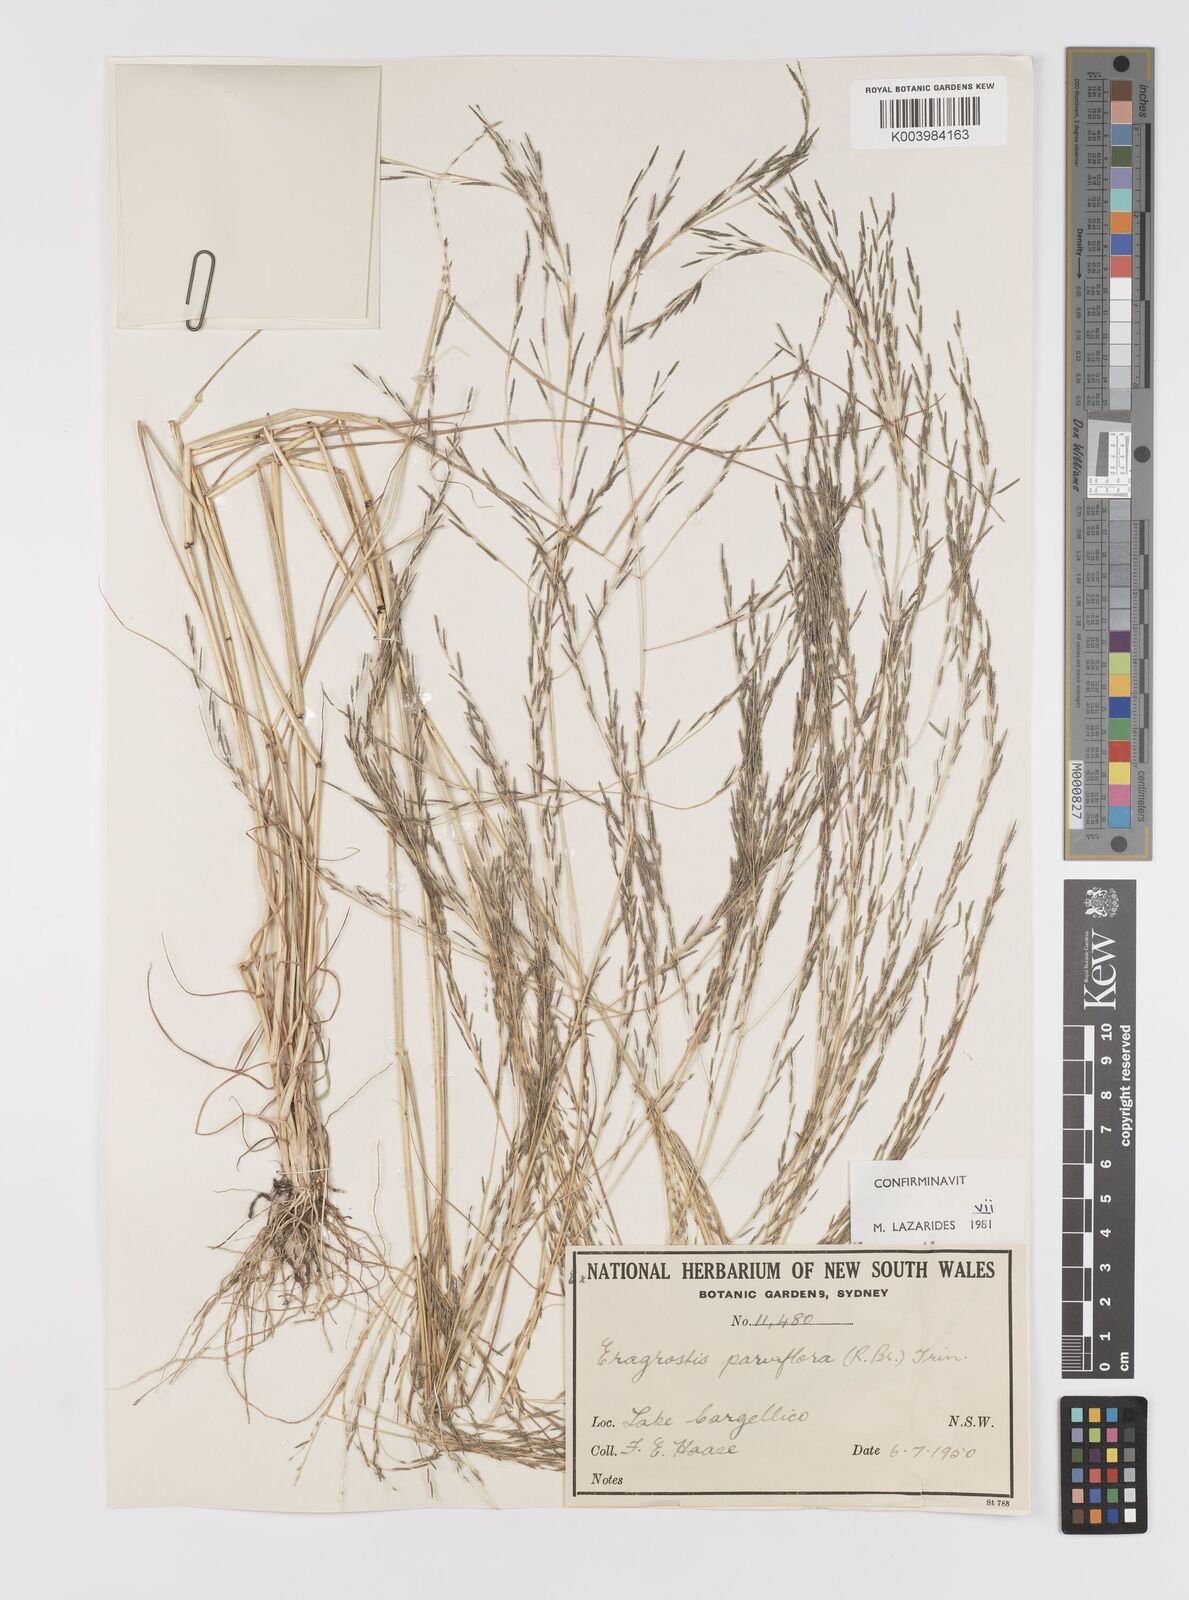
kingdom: Plantae
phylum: Tracheophyta
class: Liliopsida
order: Poales
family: Poaceae
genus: Eragrostis
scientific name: Eragrostis parviflora
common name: Weeping love-grass
